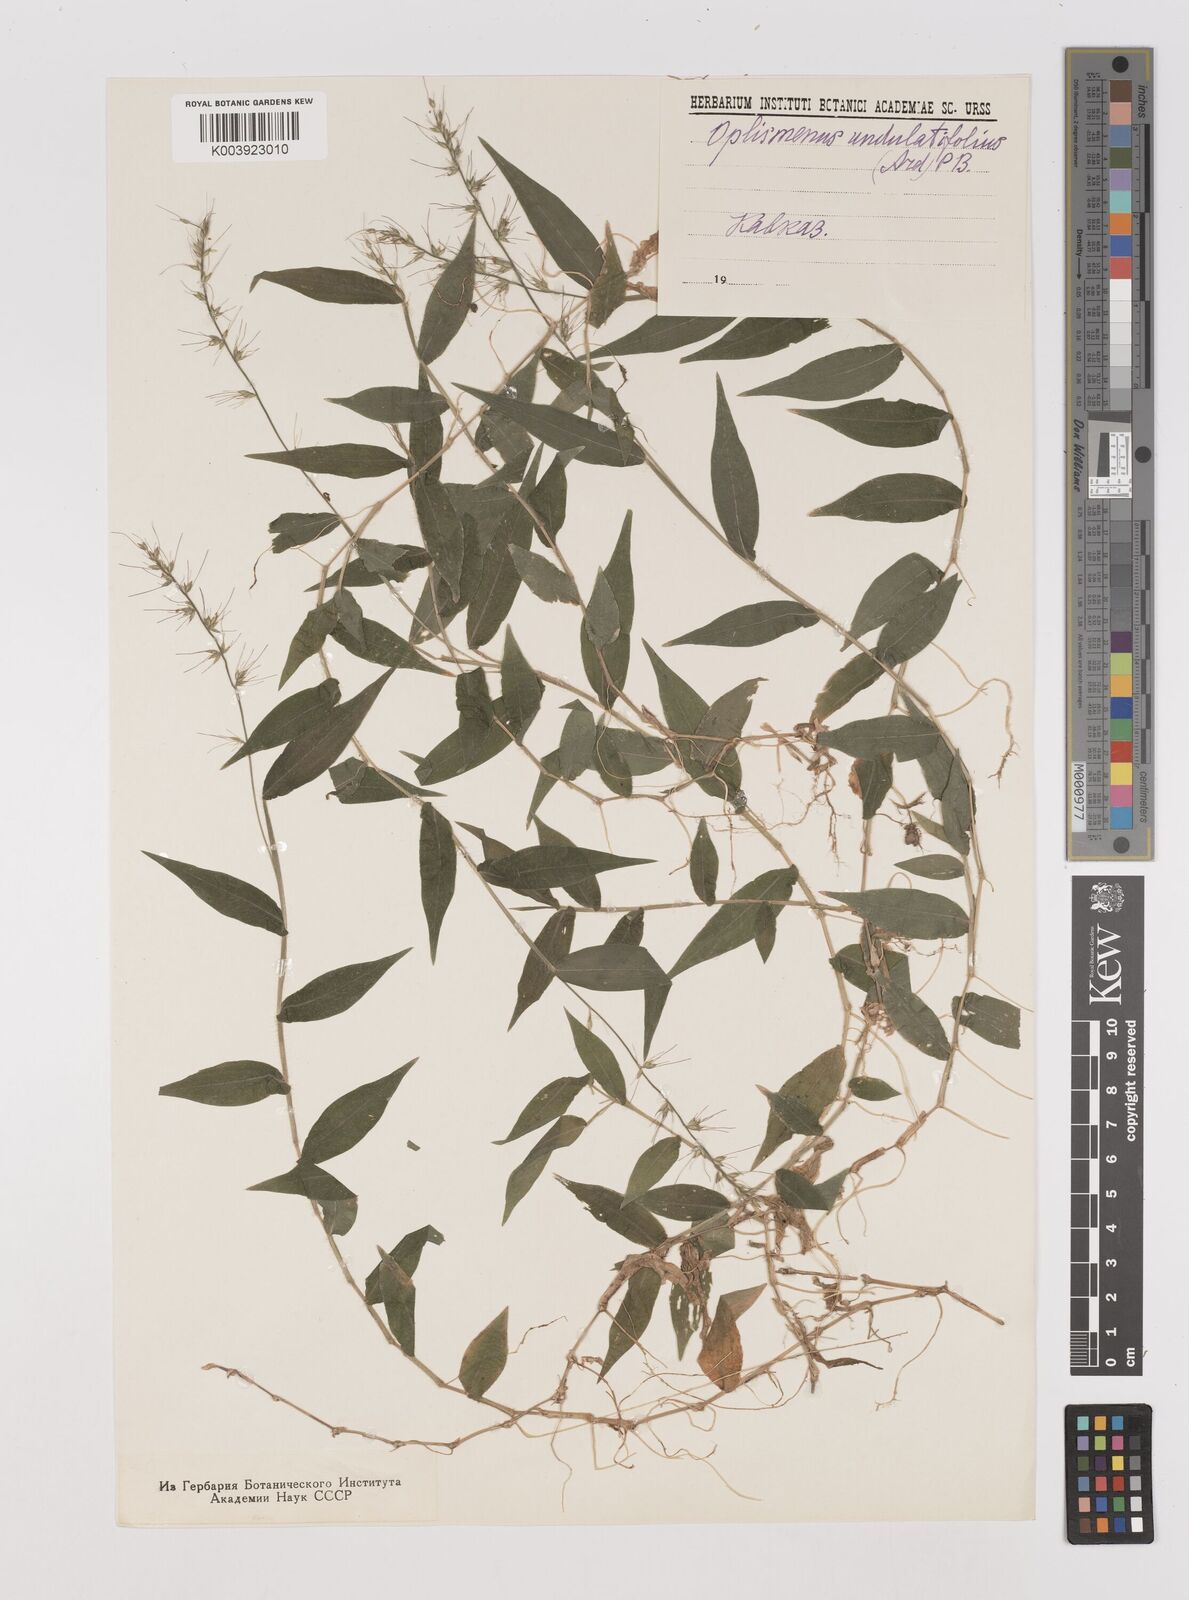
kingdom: Plantae
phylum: Tracheophyta
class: Liliopsida
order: Poales
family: Poaceae
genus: Oplismenus
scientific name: Oplismenus undulatifolius
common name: Wavyleaf basketgrass
